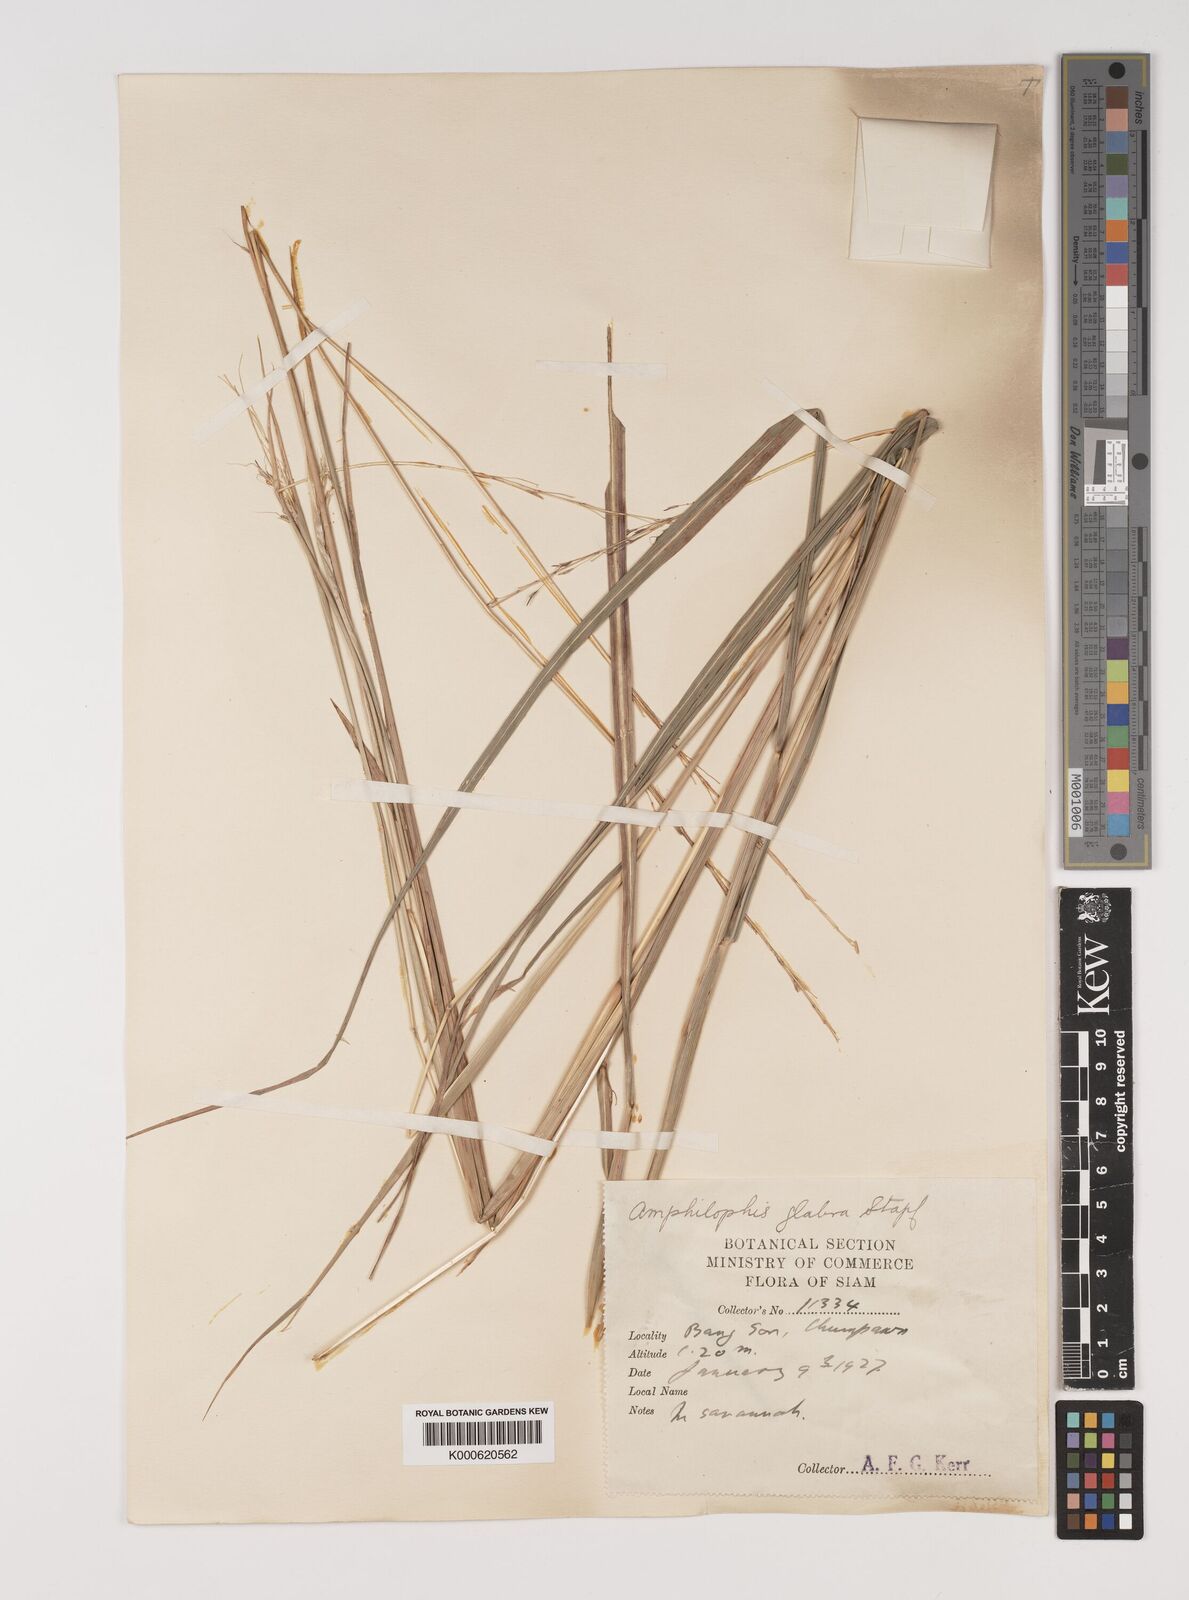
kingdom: Plantae
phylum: Tracheophyta
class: Liliopsida
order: Poales
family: Poaceae
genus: Bothriochloa
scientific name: Bothriochloa bladhii
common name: Caucasian bluestem
